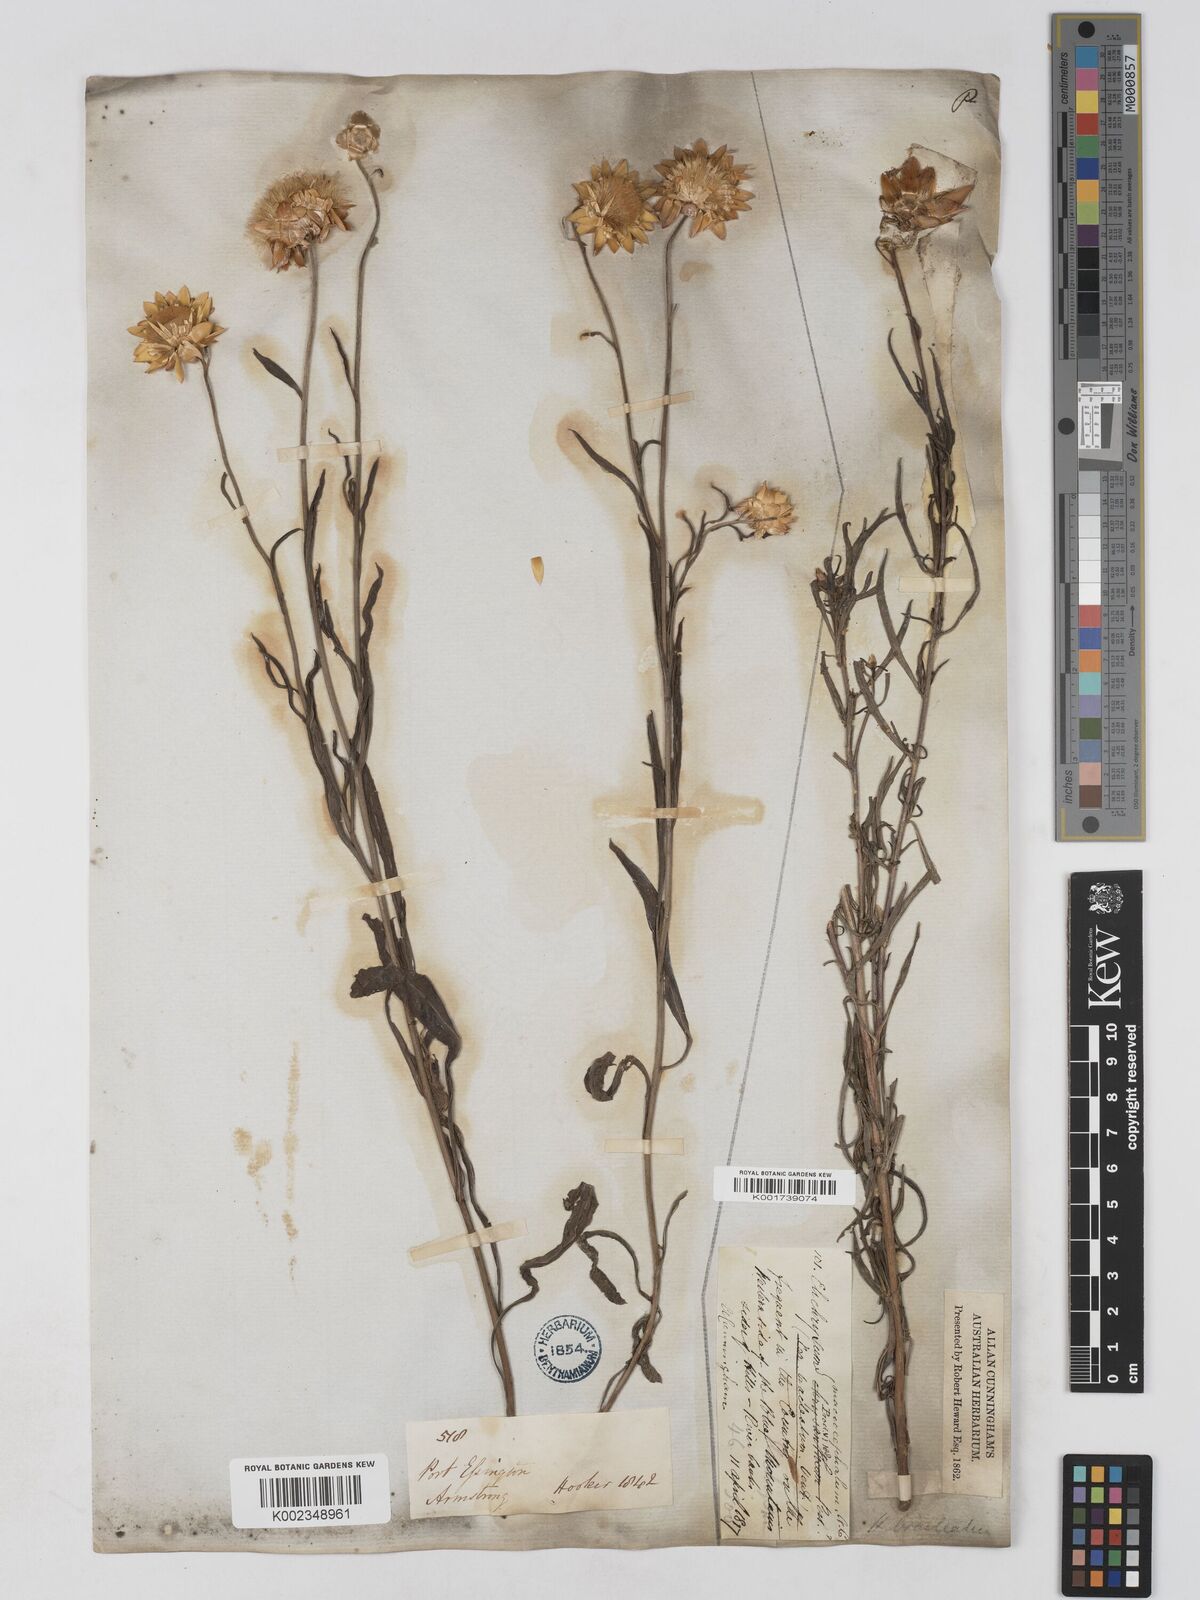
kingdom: Plantae
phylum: Tracheophyta
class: Magnoliopsida
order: Asterales
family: Asteraceae
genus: Xerochrysum
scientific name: Xerochrysum bracteatum
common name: Bracted strawflower
